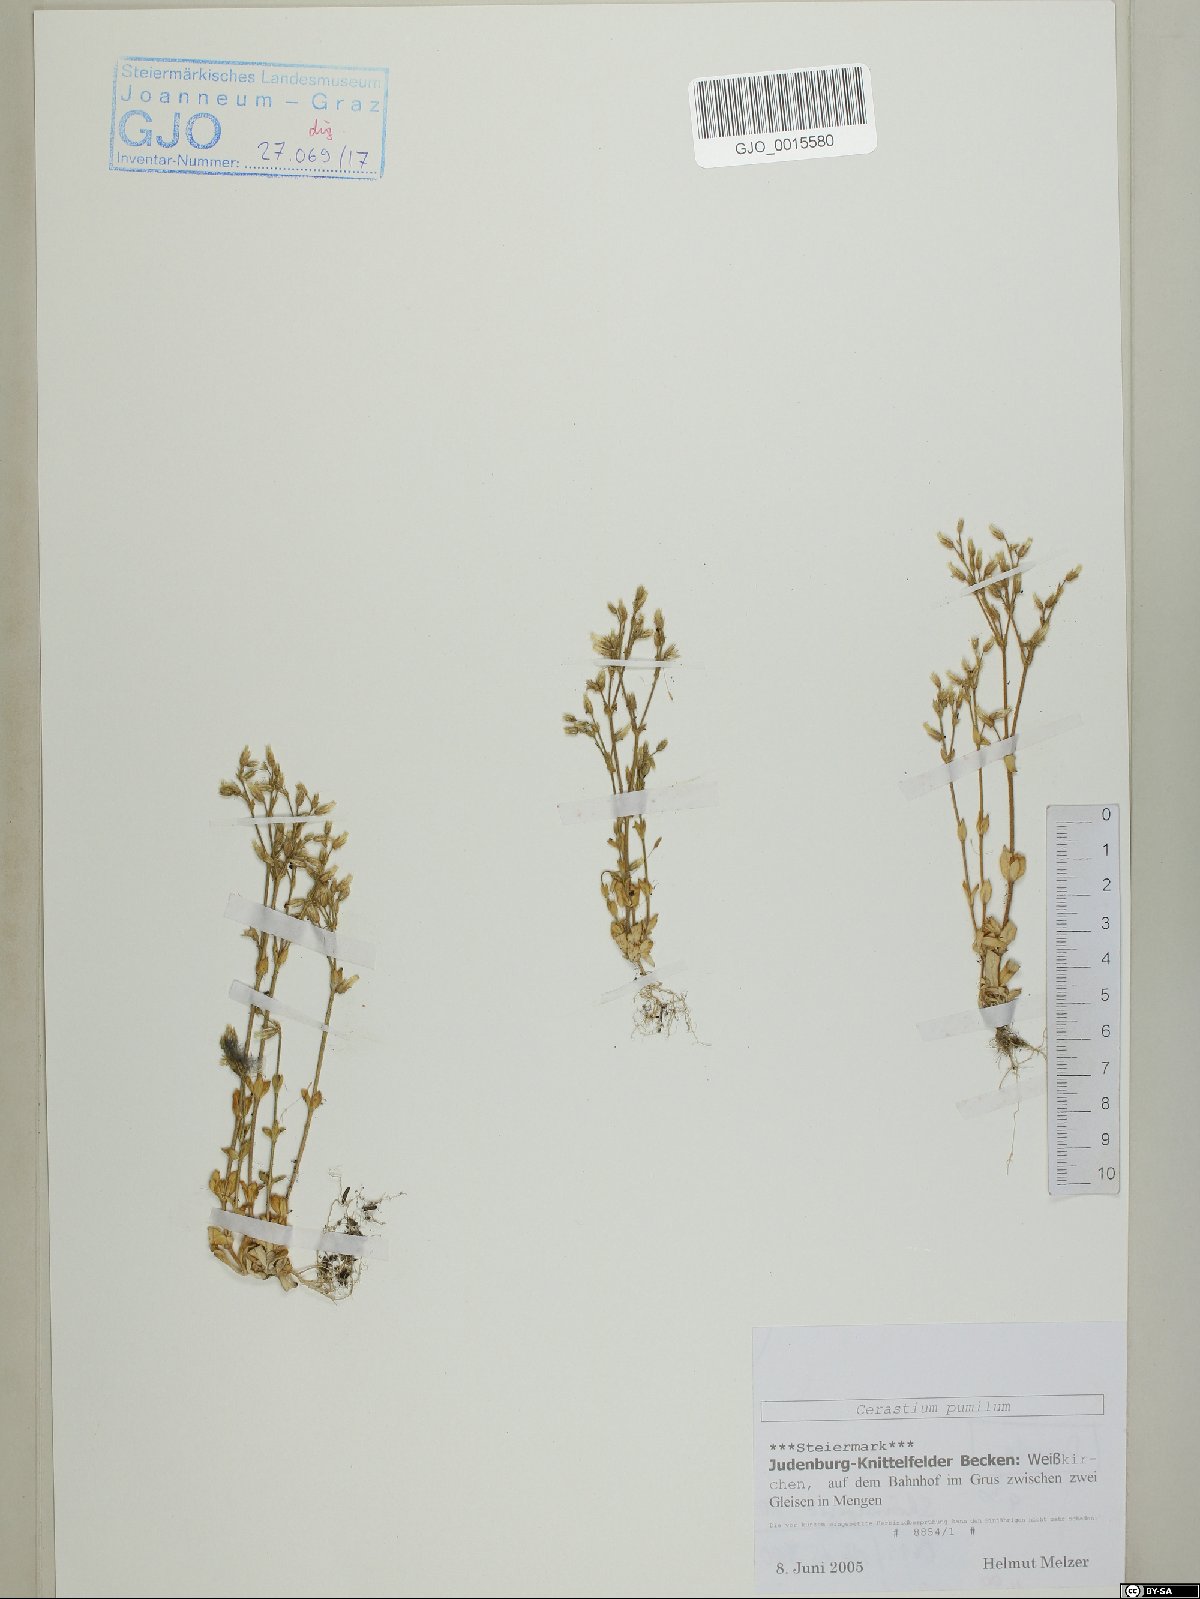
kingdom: Plantae
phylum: Tracheophyta
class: Magnoliopsida
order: Caryophyllales
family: Caryophyllaceae
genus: Cerastium
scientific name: Cerastium pumilum
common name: Dwarf mouse-ear
